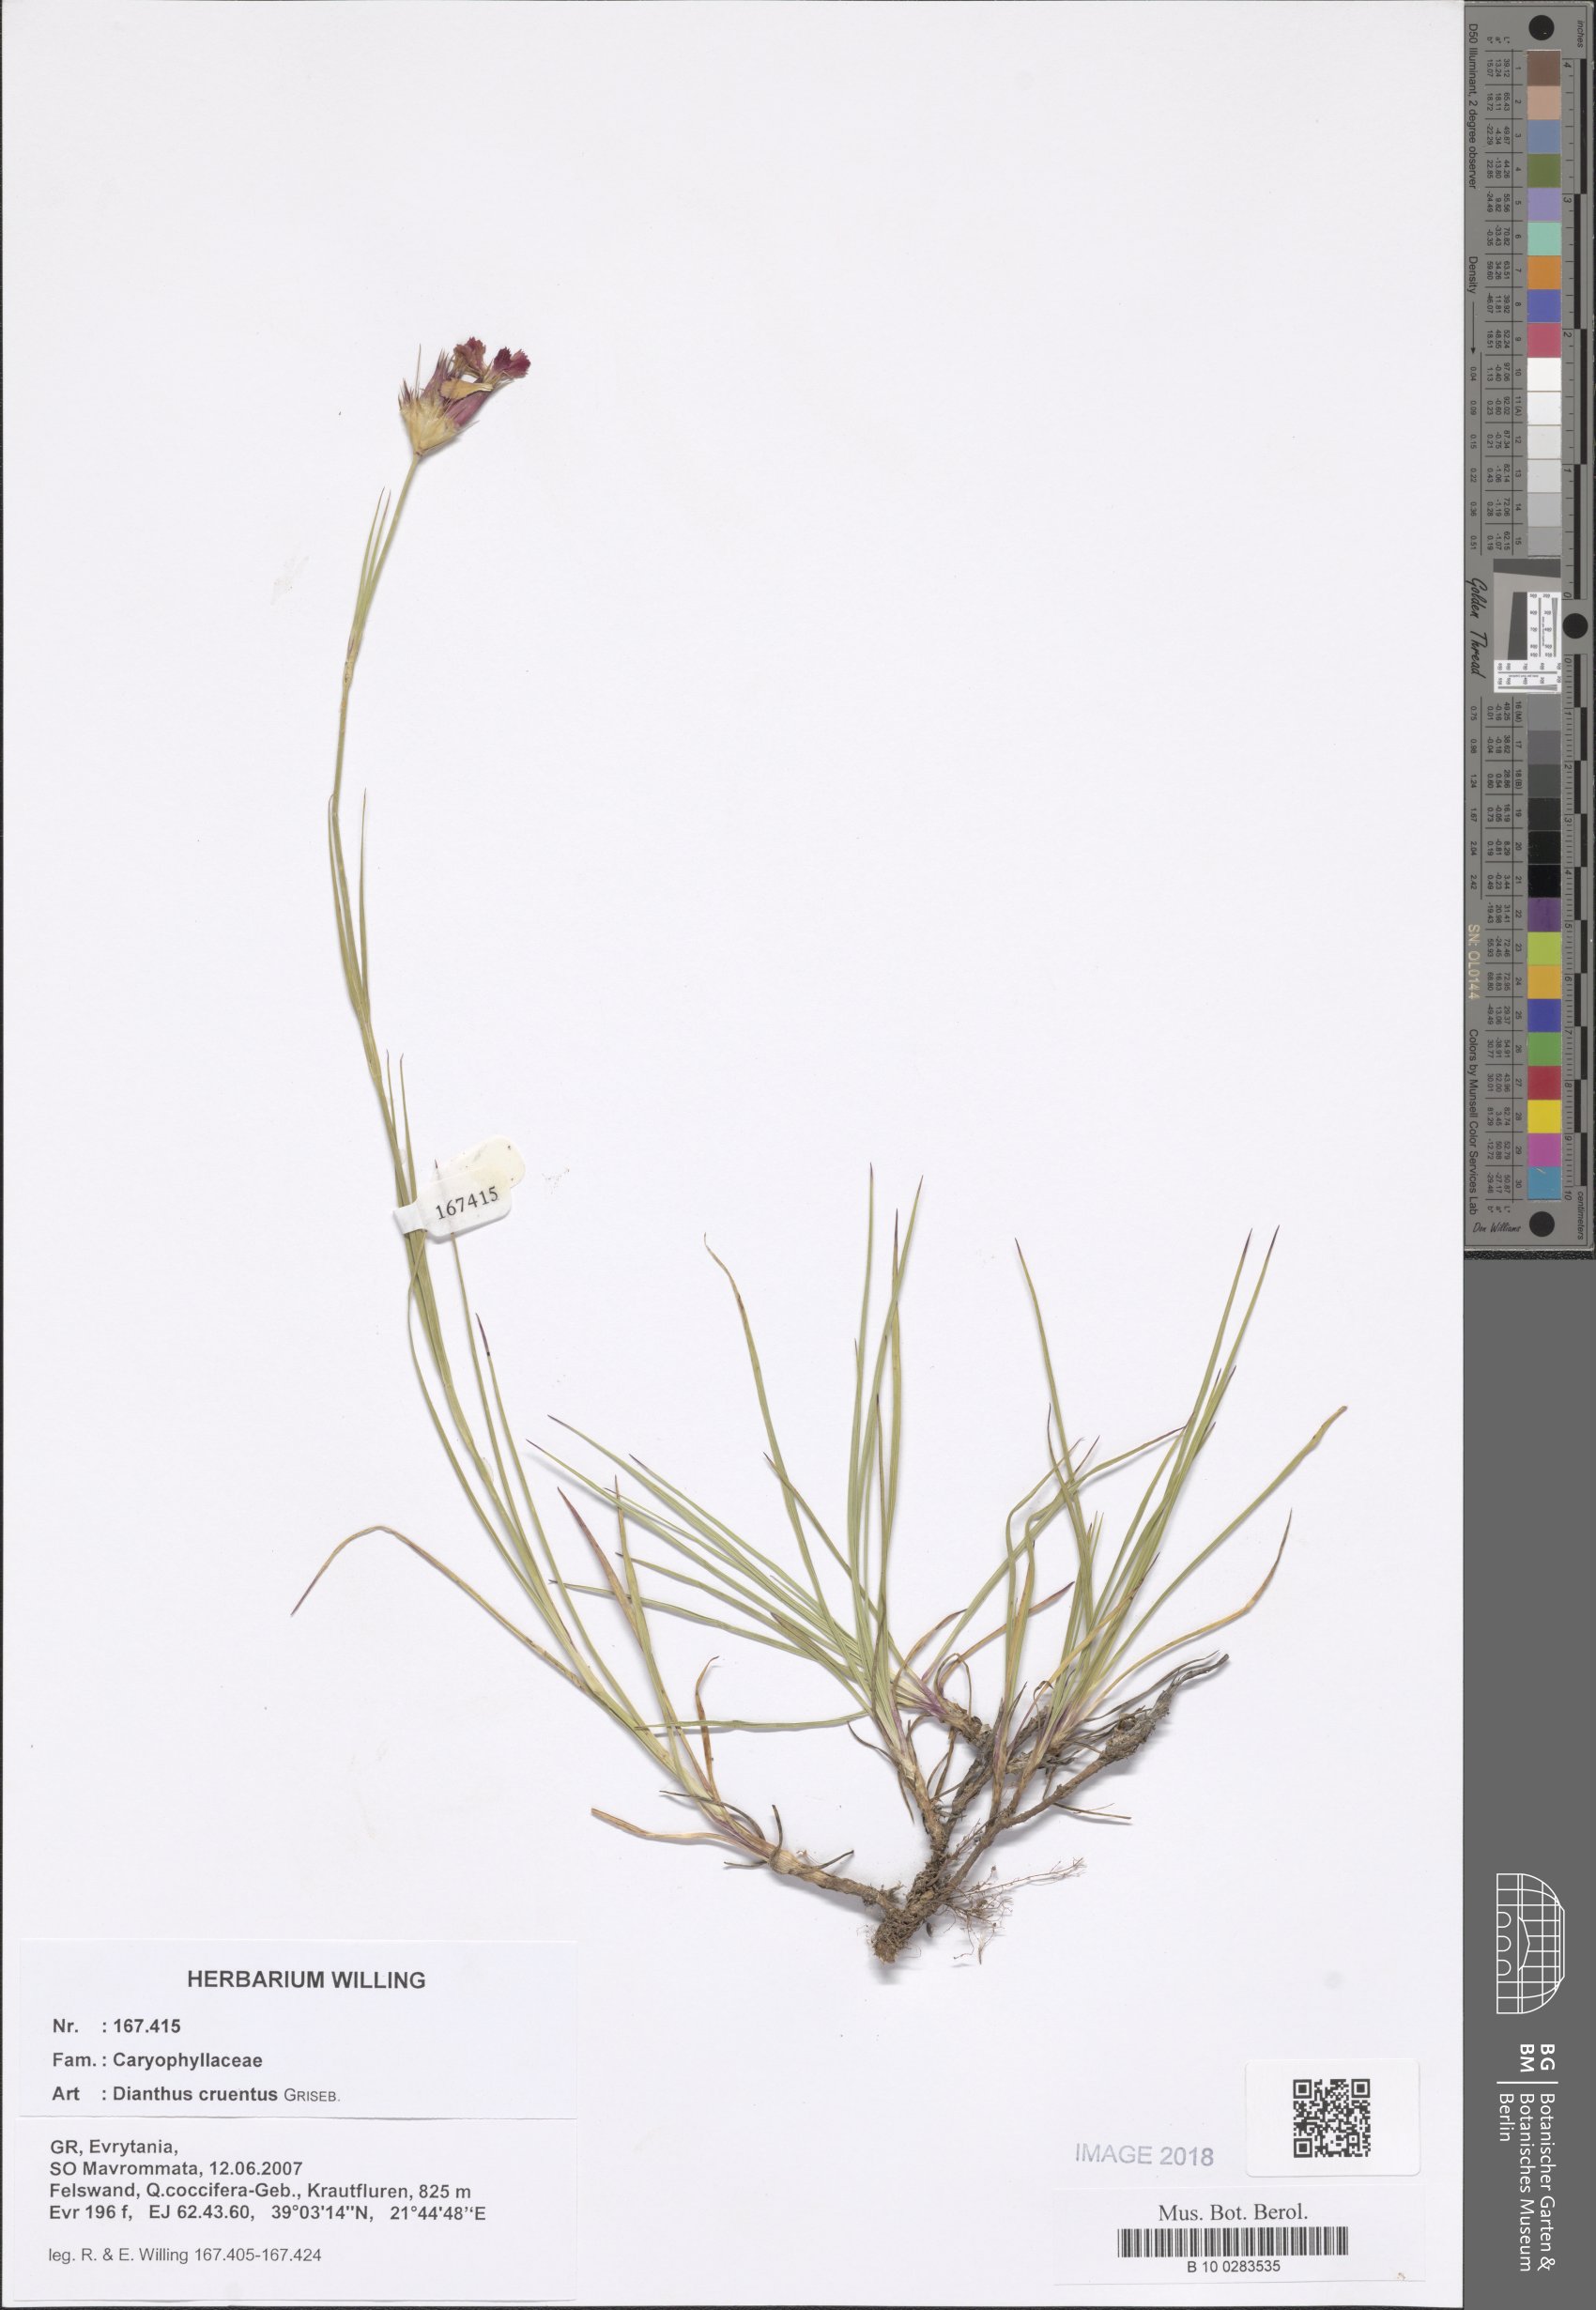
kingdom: Plantae
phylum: Tracheophyta
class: Magnoliopsida
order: Caryophyllales
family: Caryophyllaceae
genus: Dianthus
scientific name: Dianthus cruentus
